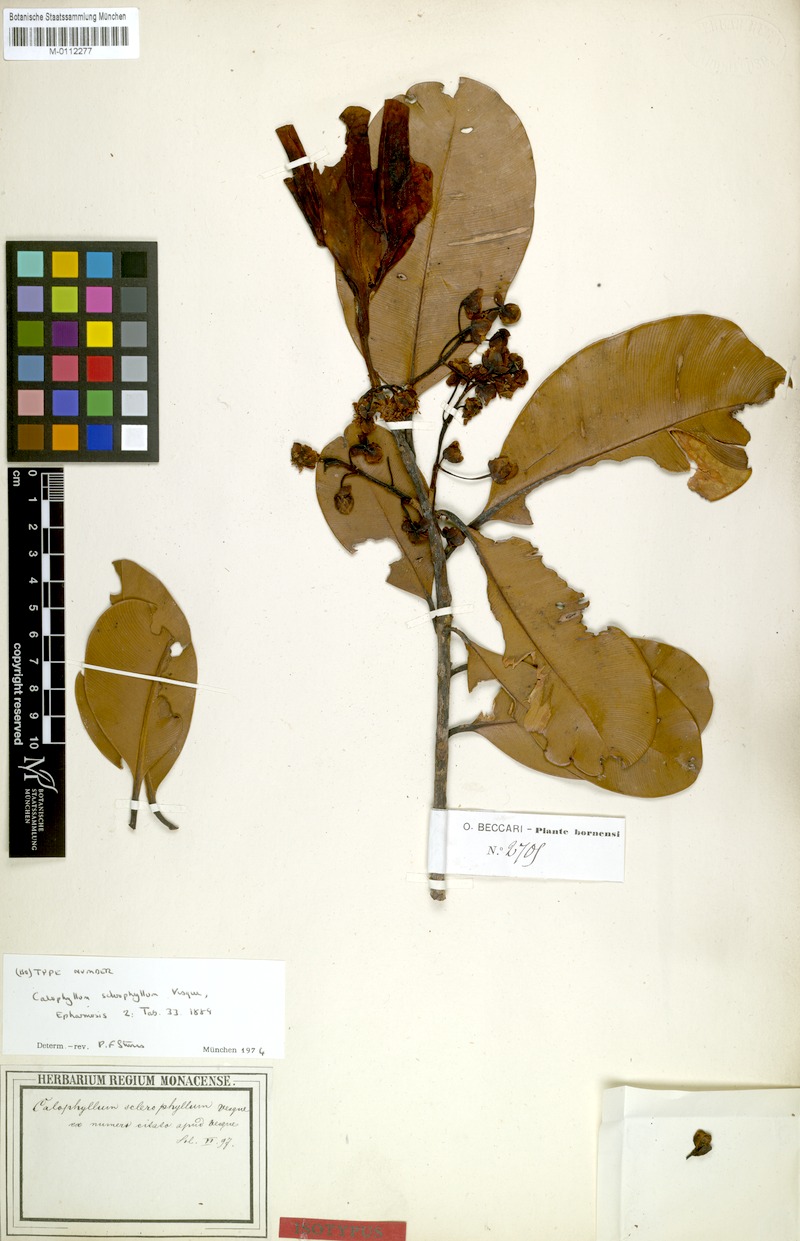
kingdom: Plantae
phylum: Tracheophyta
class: Magnoliopsida
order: Malpighiales
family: Calophyllaceae
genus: Calophyllum
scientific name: Calophyllum sclerophyllum
